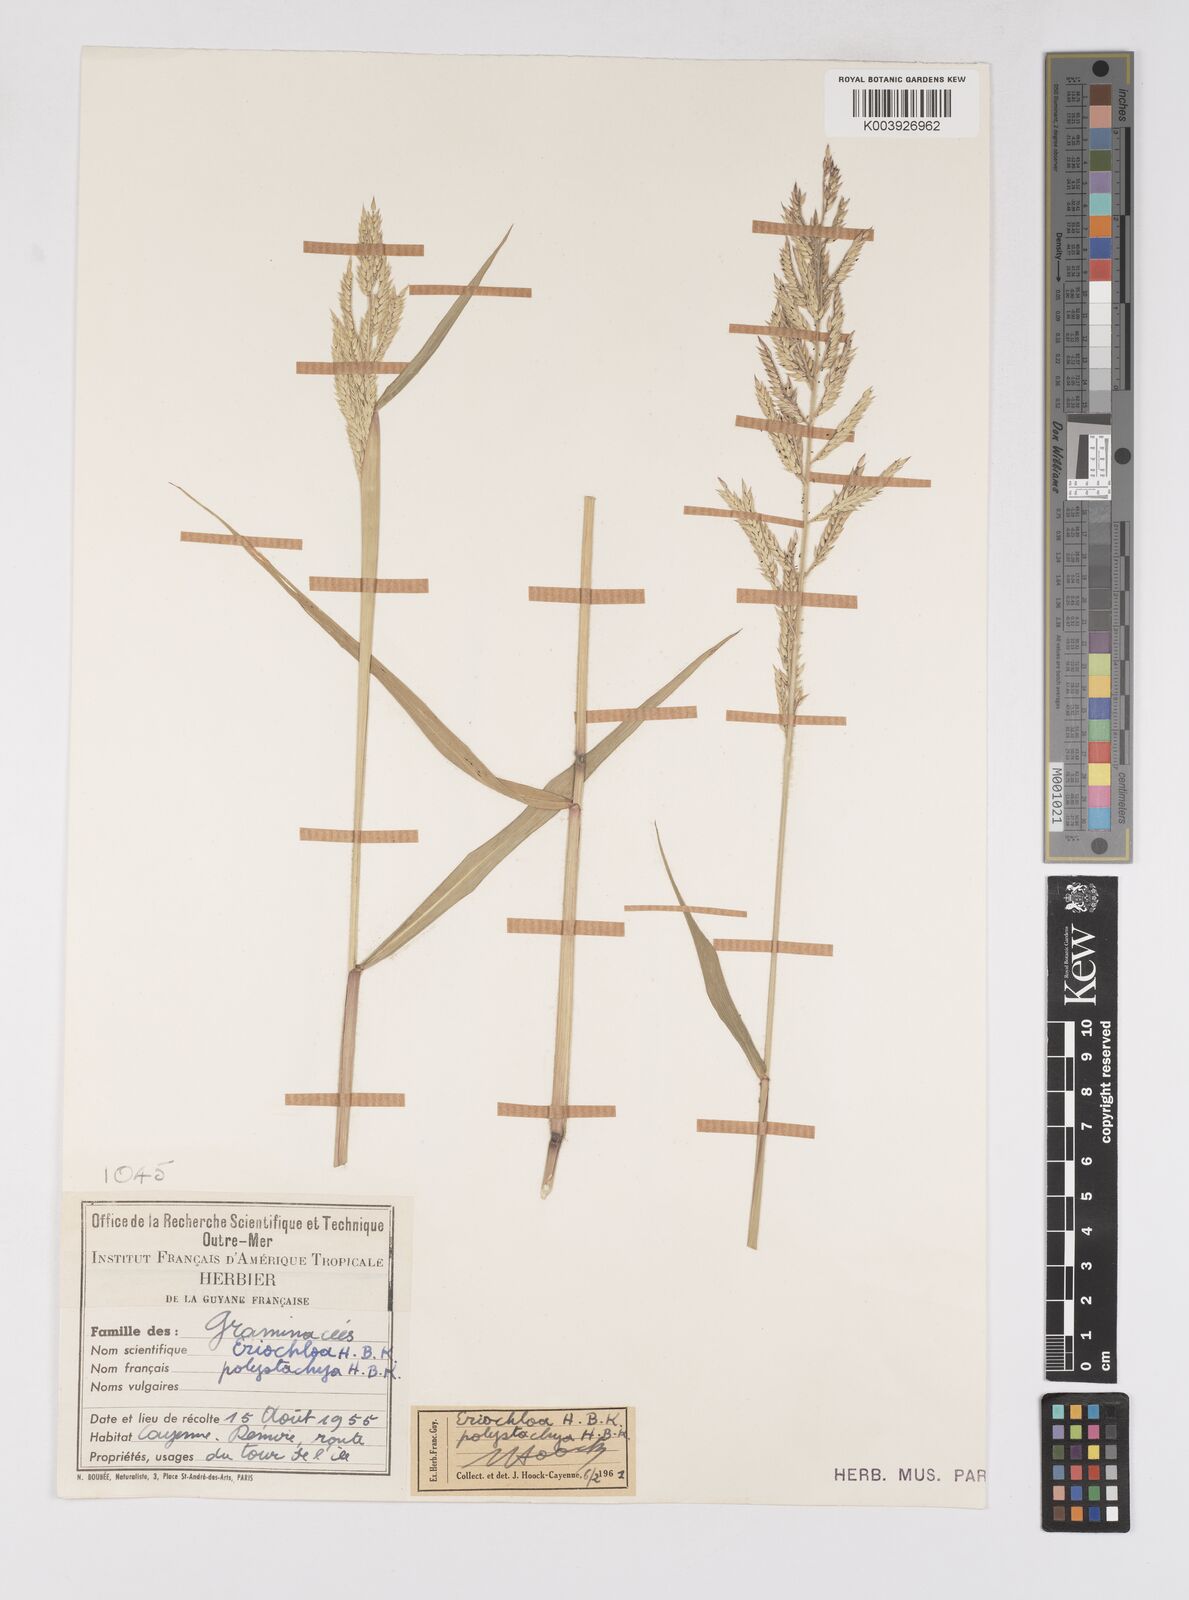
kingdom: Plantae
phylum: Tracheophyta
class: Liliopsida
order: Poales
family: Poaceae
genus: Eriochloa
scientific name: Eriochloa punctata
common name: Louisiana cupgrass
